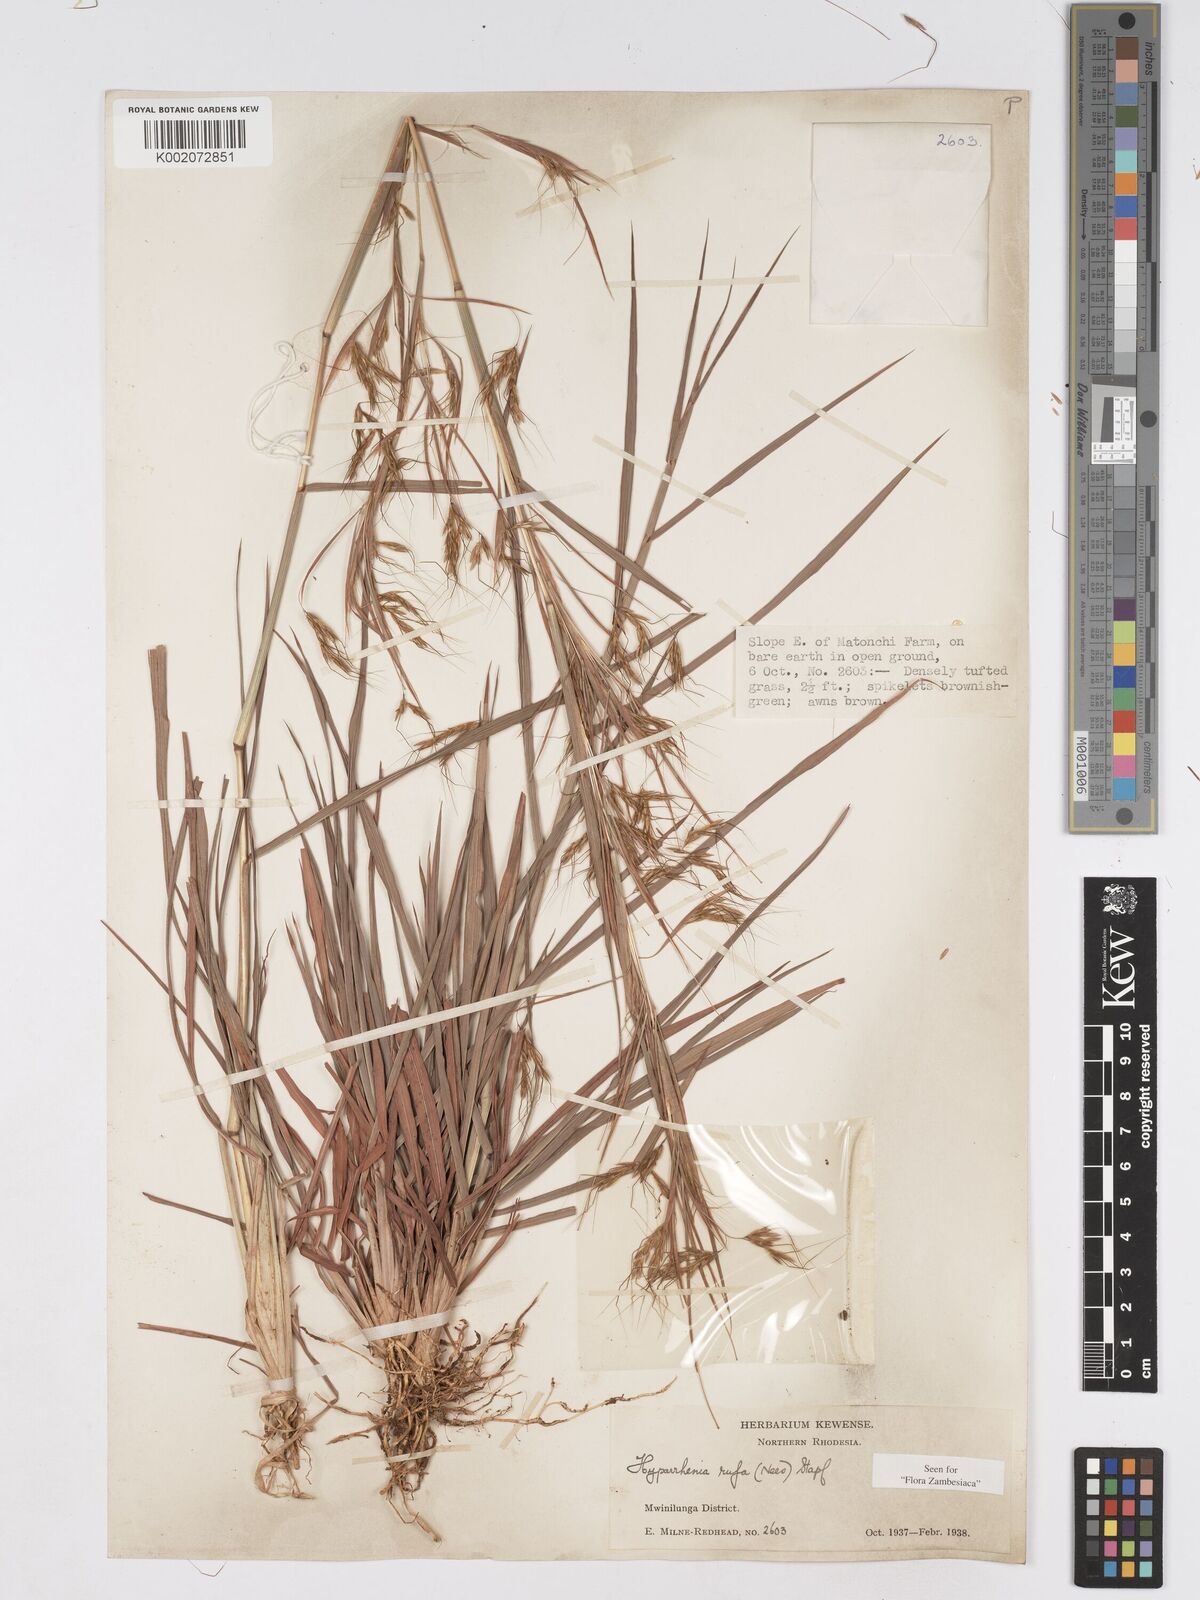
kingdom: Plantae
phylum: Tracheophyta
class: Liliopsida
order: Poales
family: Poaceae
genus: Hyparrhenia
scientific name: Hyparrhenia rufa
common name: Jaraguagrass
